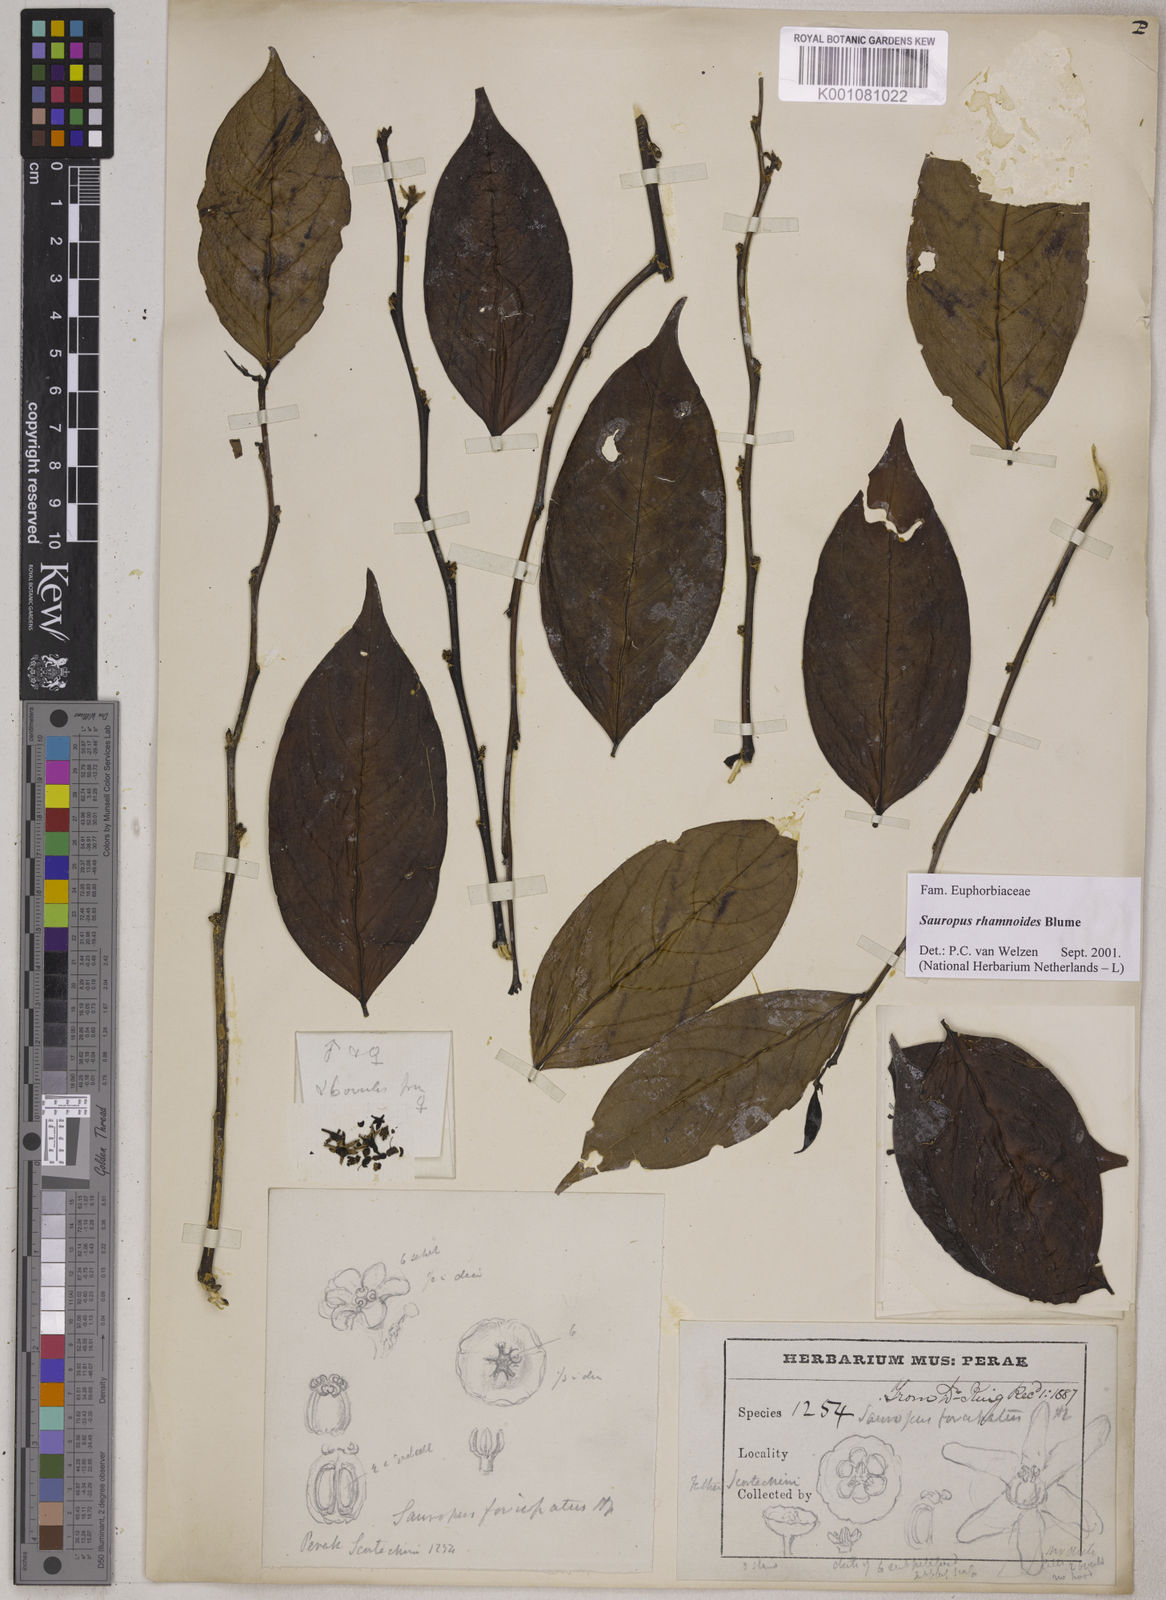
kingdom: Plantae
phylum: Tracheophyta
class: Magnoliopsida
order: Malpighiales
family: Phyllanthaceae
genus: Breynia
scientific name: Breynia lanceolata
